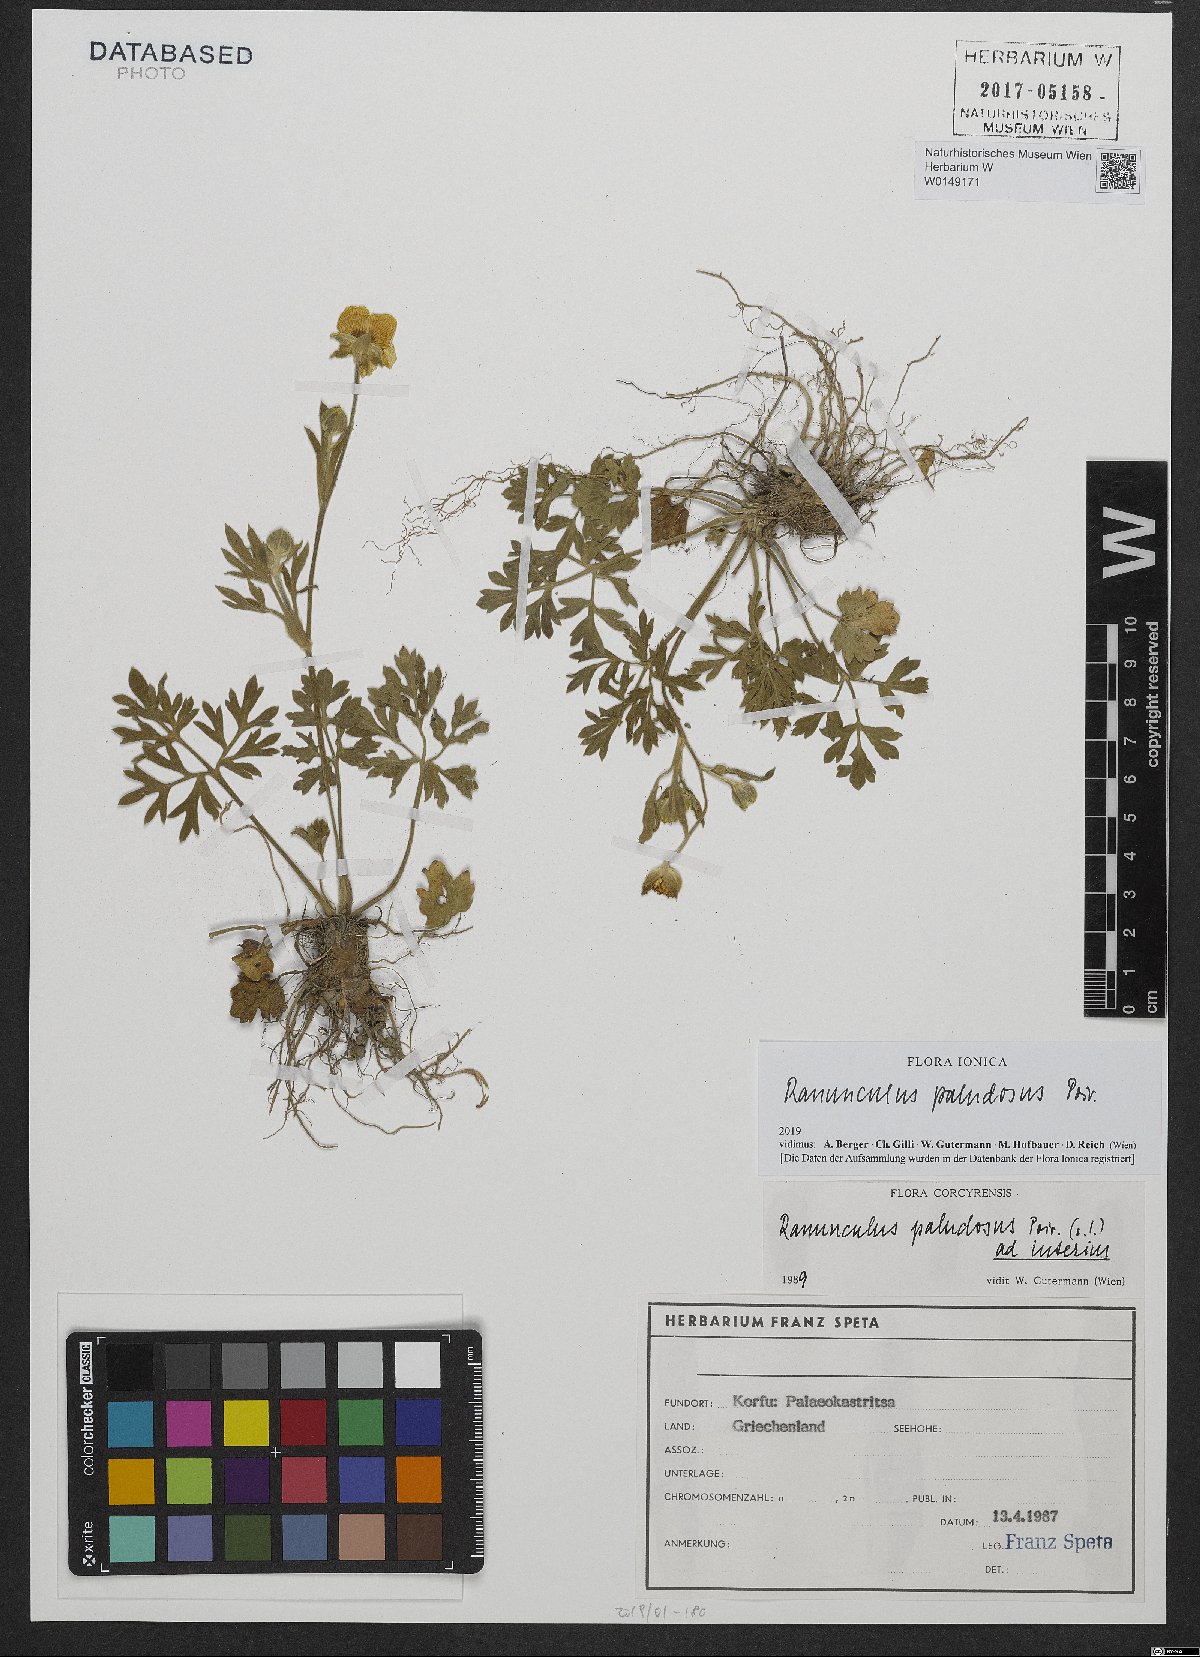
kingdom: Plantae
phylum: Tracheophyta
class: Magnoliopsida
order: Ranunculales
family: Ranunculaceae
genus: Ranunculus
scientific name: Ranunculus paludosus
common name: Jersey buttercup
